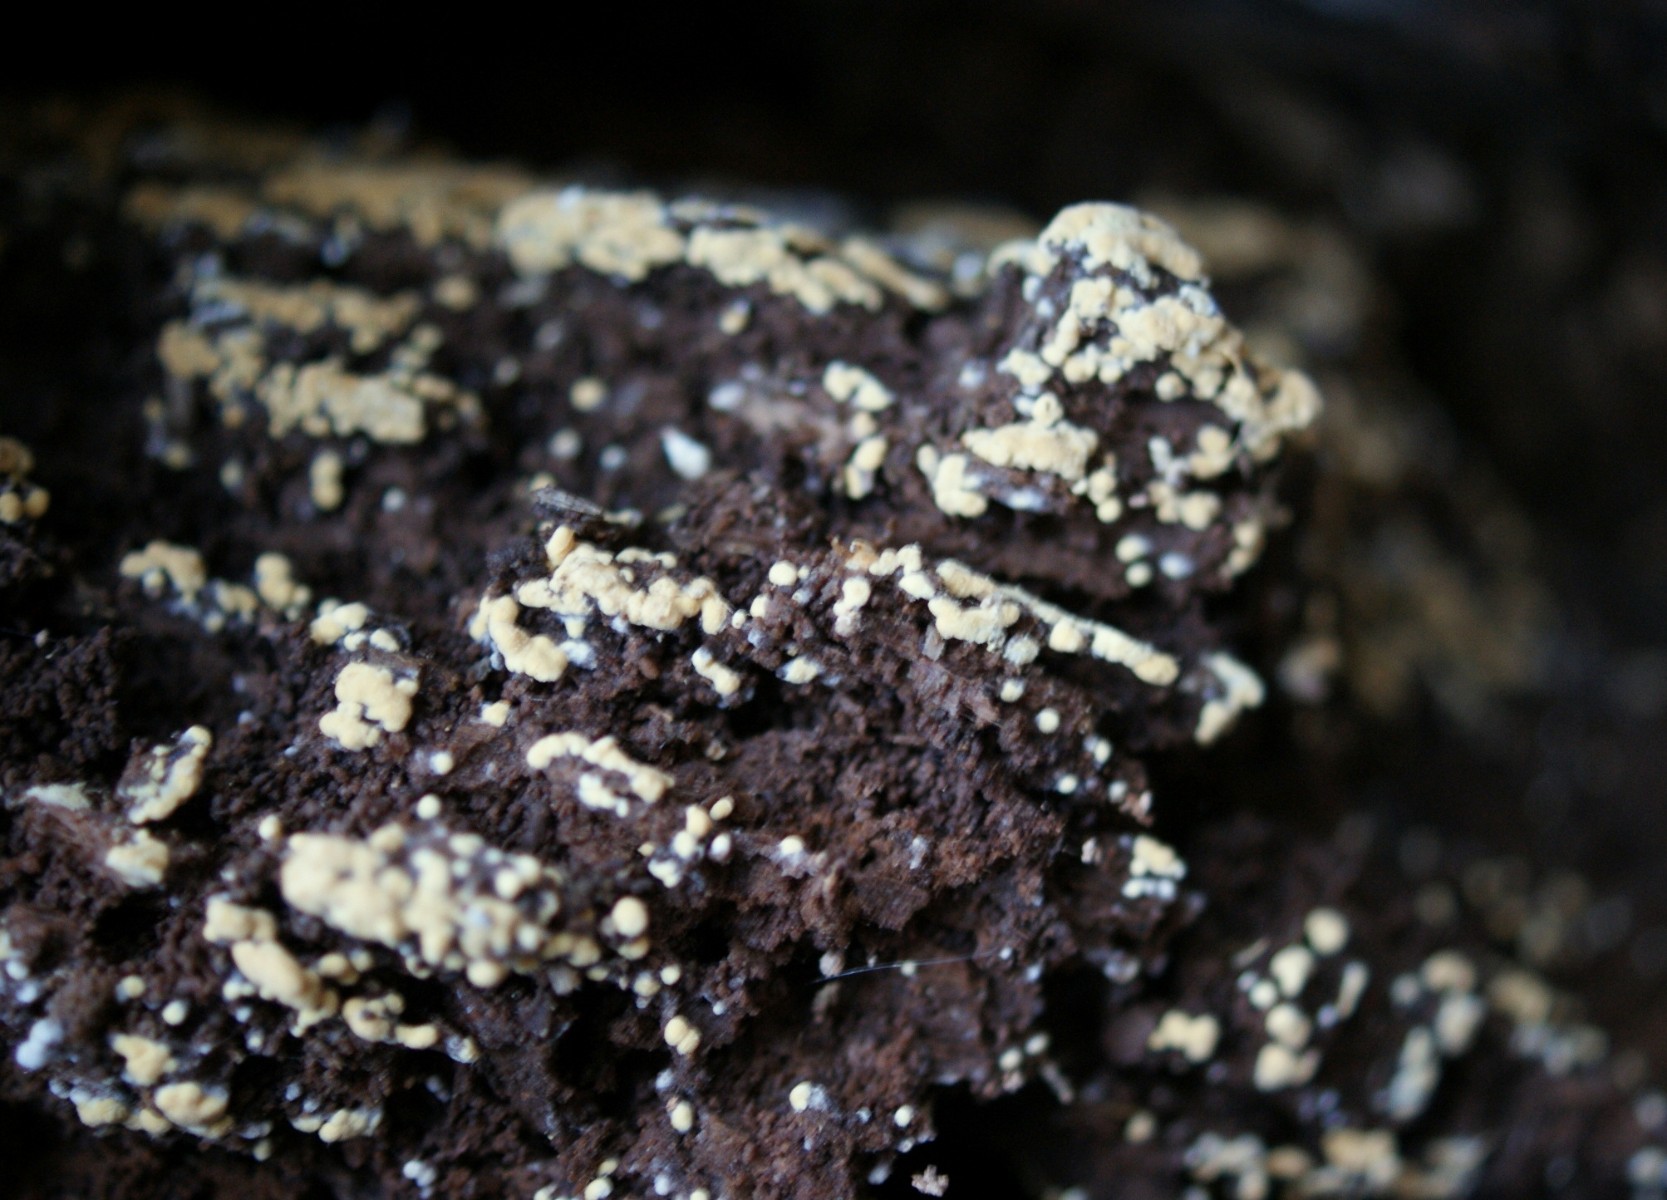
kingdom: Fungi
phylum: Basidiomycota
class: Agaricomycetes
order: Cantharellales
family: Botryobasidiaceae
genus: Botryobasidium
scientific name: Botryobasidium aureum
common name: gylden spindhinde
